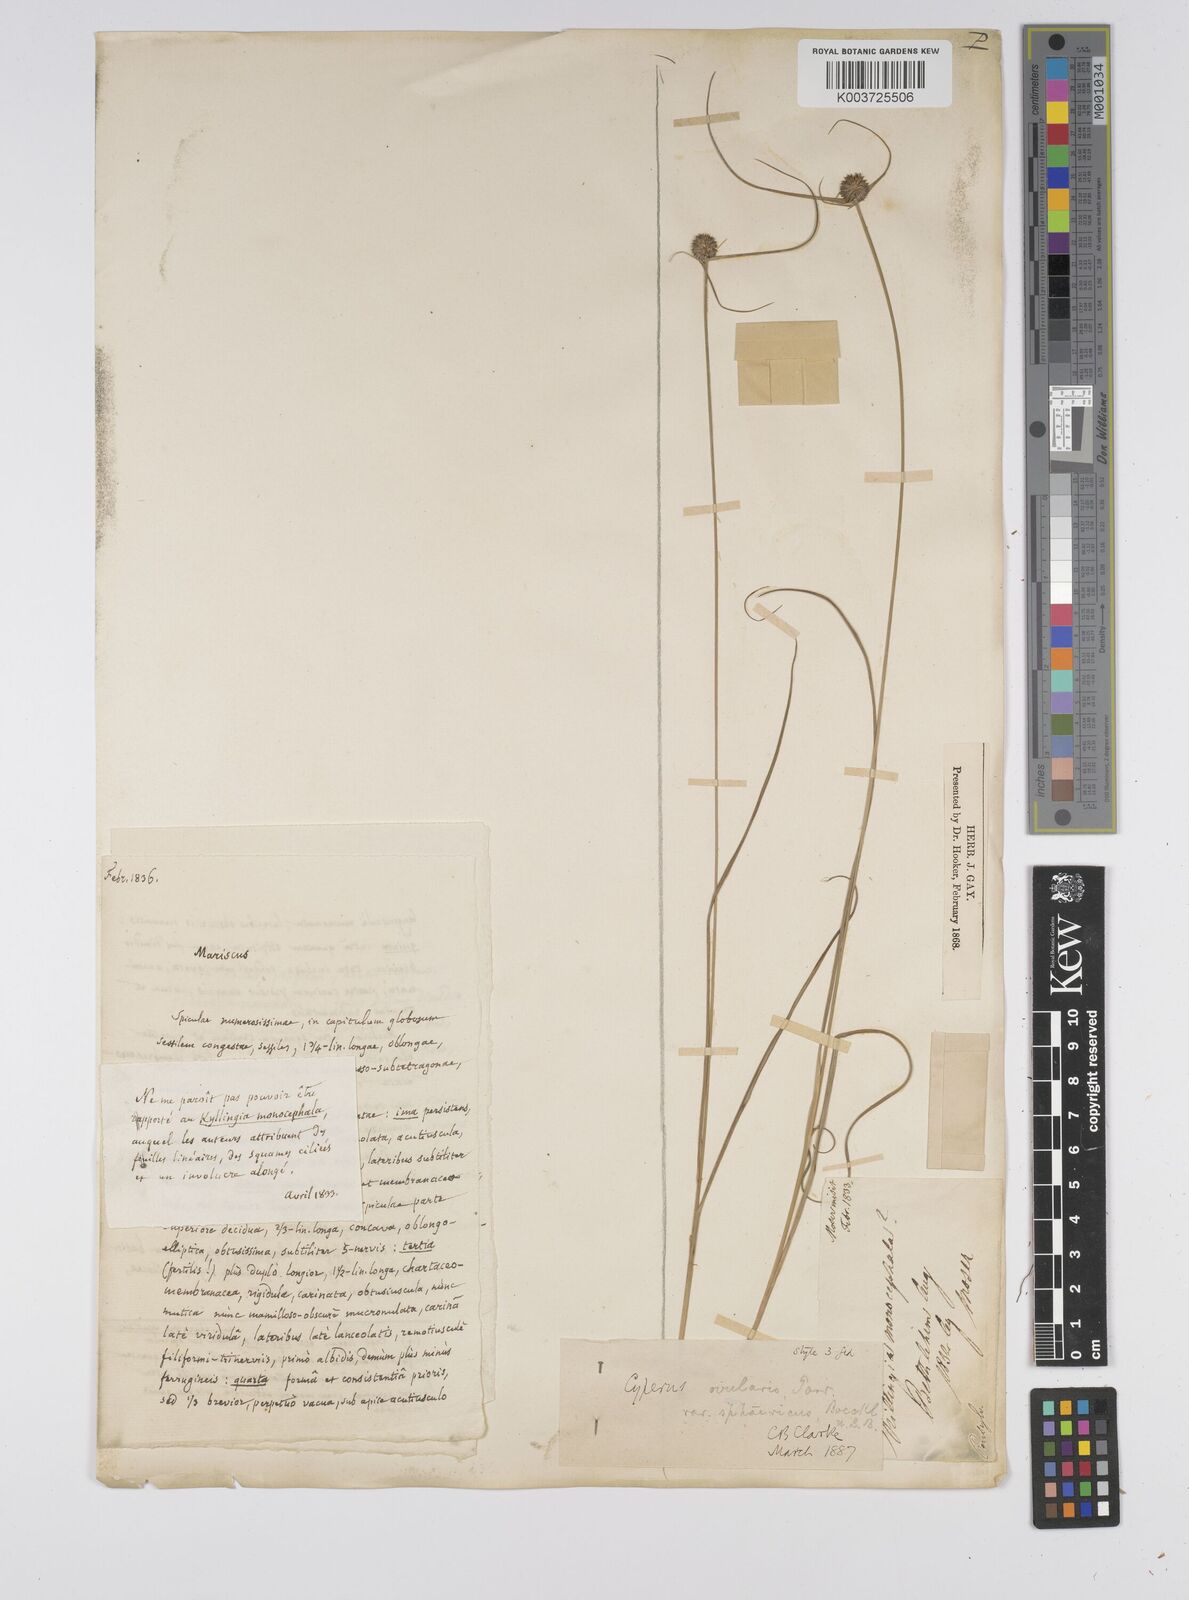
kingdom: Plantae
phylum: Tracheophyta
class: Liliopsida
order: Poales
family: Cyperaceae
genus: Cyperus
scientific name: Cyperus echinatus
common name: Teasel sedge
